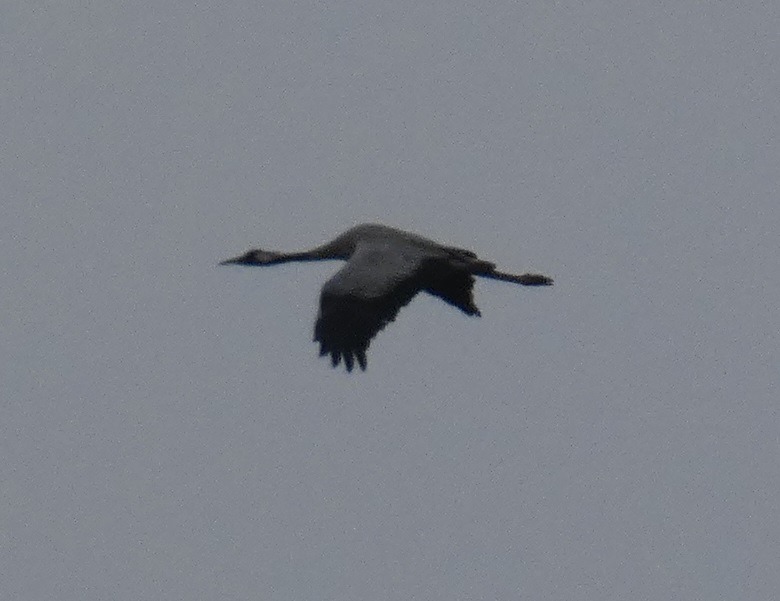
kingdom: Animalia
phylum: Chordata
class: Aves
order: Gruiformes
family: Gruidae
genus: Grus
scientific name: Grus grus
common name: Trane
